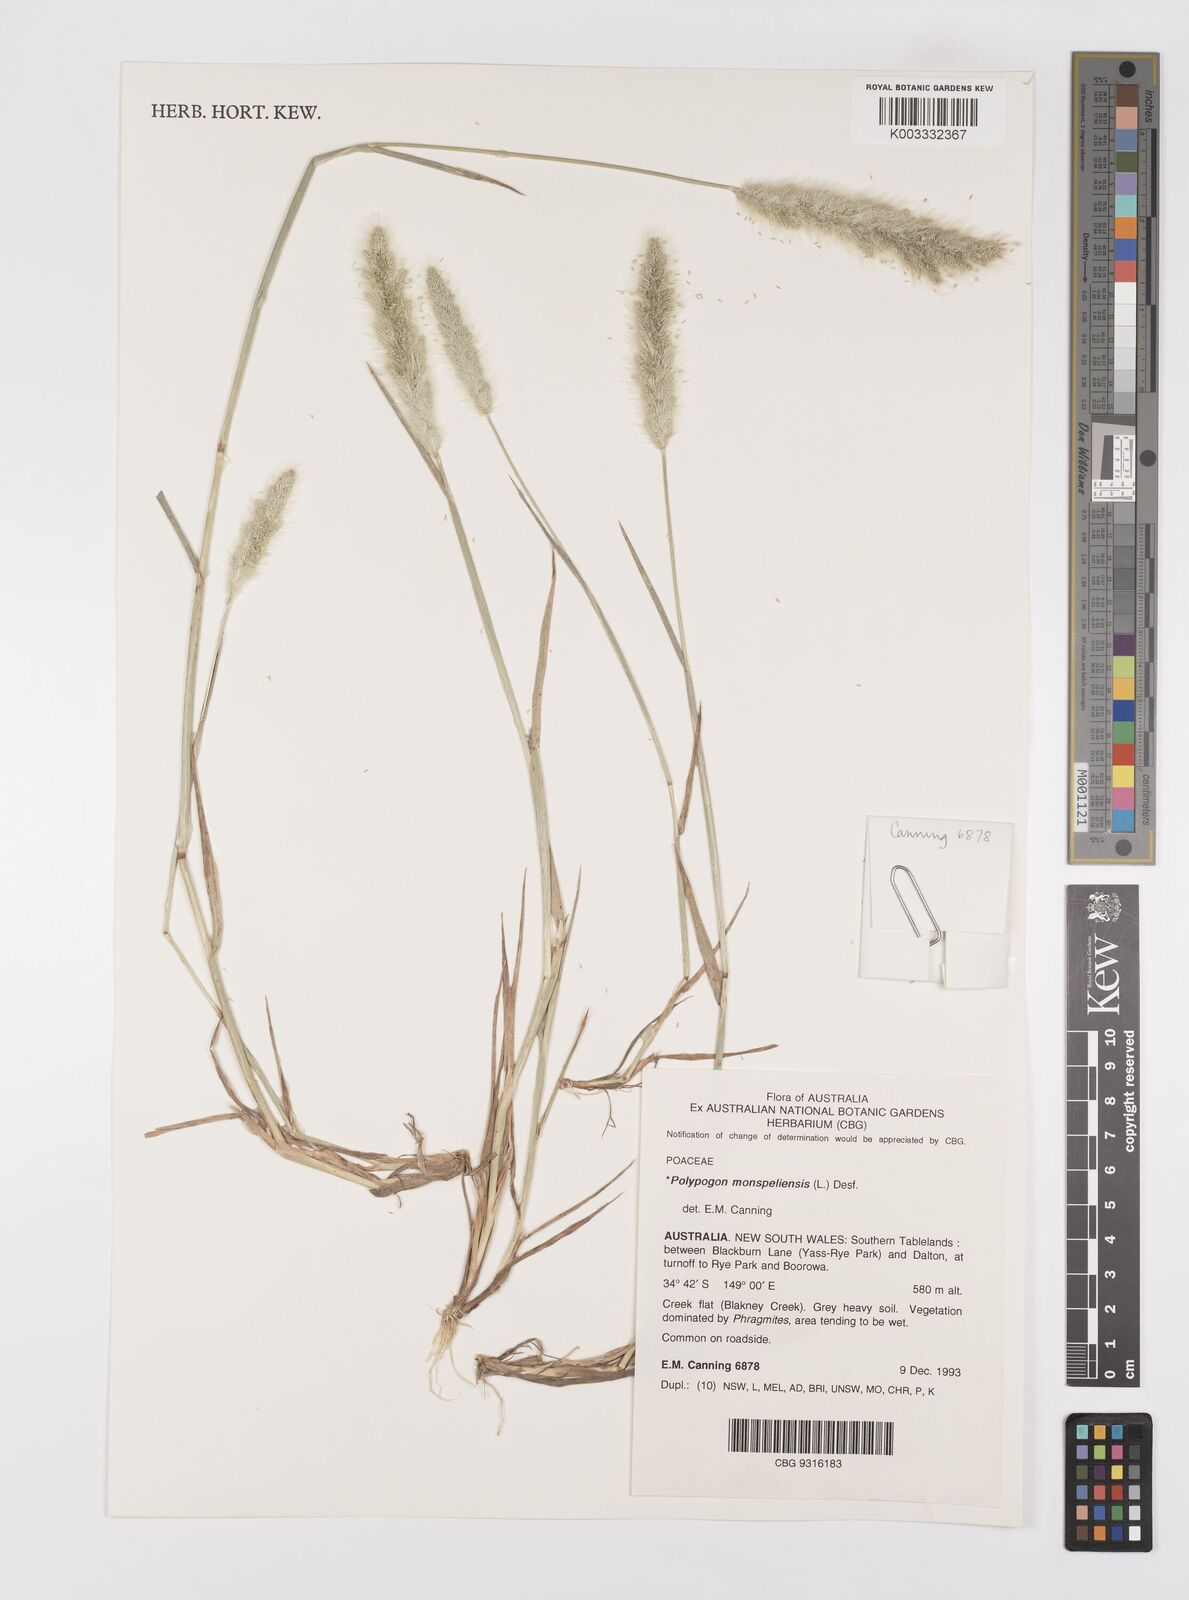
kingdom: Plantae
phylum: Tracheophyta
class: Liliopsida
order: Poales
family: Poaceae
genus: Polypogon
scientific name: Polypogon monspeliensis
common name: Annual rabbitsfoot grass
